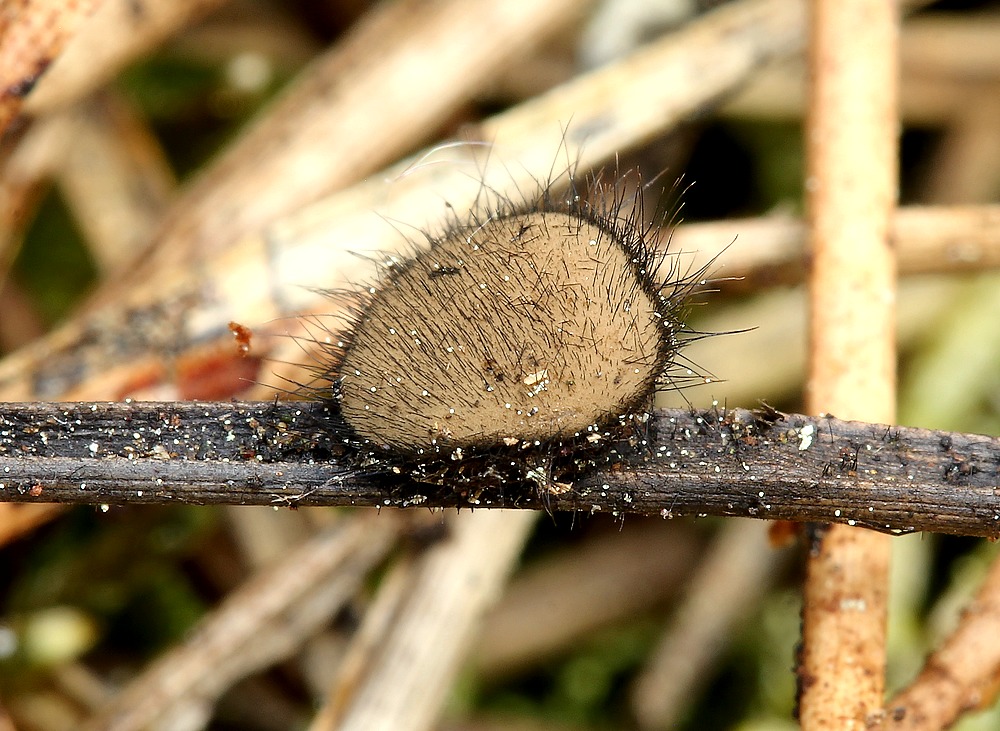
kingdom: Fungi
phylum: Ascomycota
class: Pezizomycetes
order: Pezizales
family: Chorioactidaceae
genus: Desmazierella
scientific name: Desmazierella acicola
